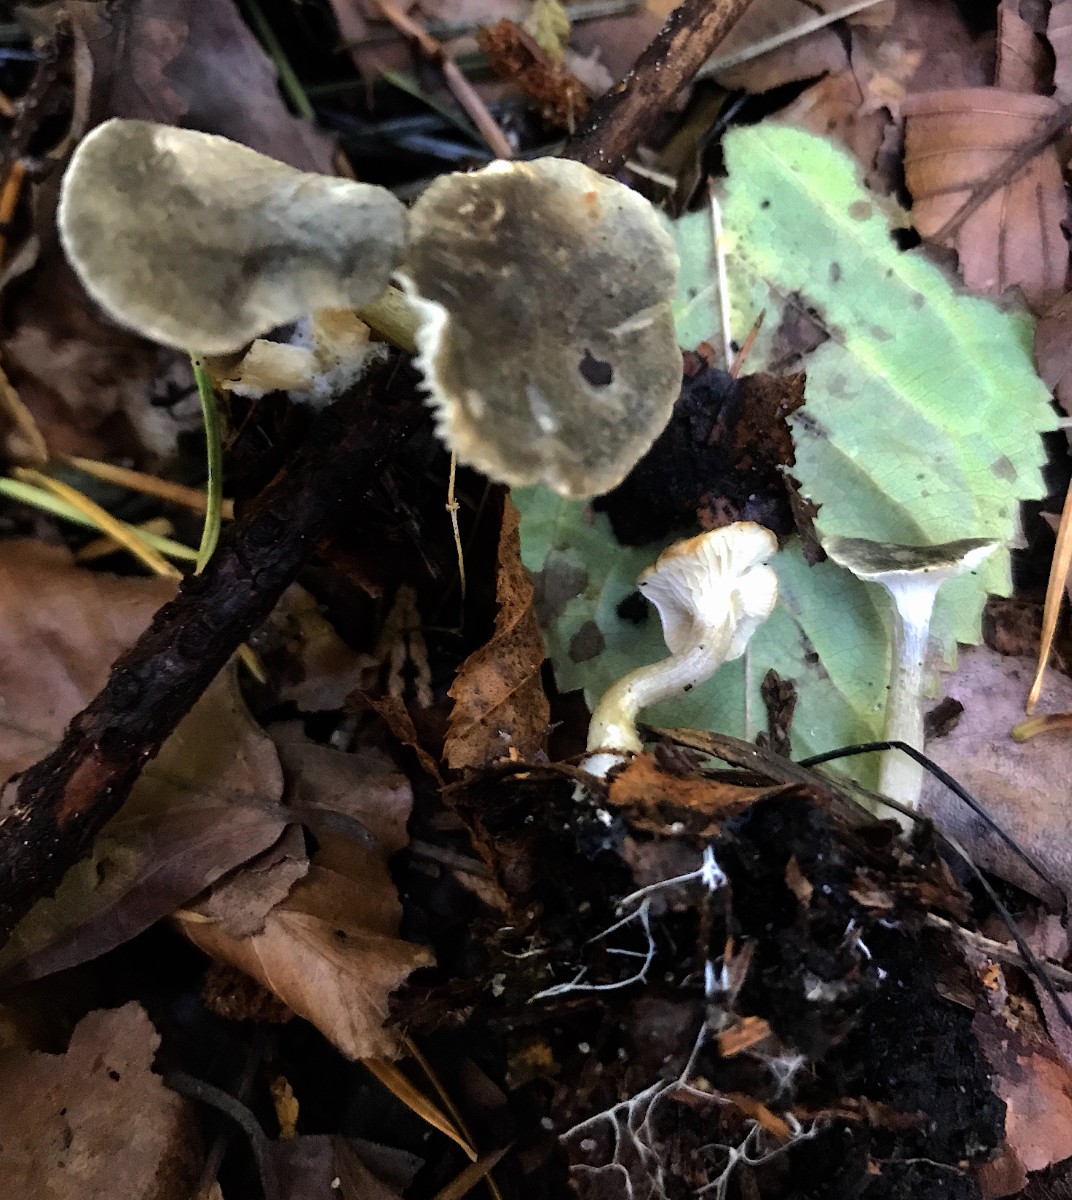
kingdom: Fungi
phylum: Basidiomycota
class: Agaricomycetes
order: Agaricales
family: Hygrophoraceae
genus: Spodocybe
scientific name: Spodocybe trulliformis
